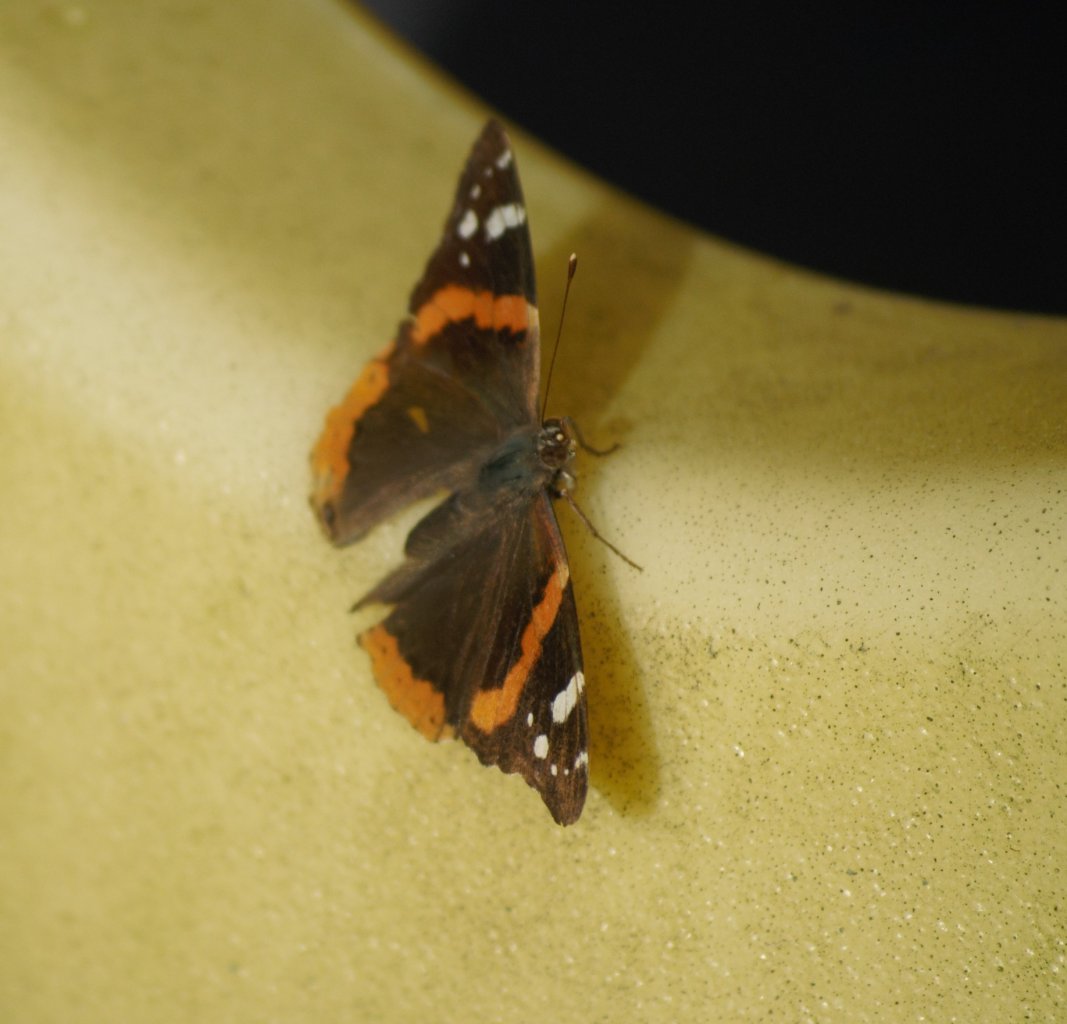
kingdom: Animalia
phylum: Arthropoda
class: Insecta
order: Lepidoptera
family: Nymphalidae
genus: Vanessa
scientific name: Vanessa atalanta
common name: Red Admiral
